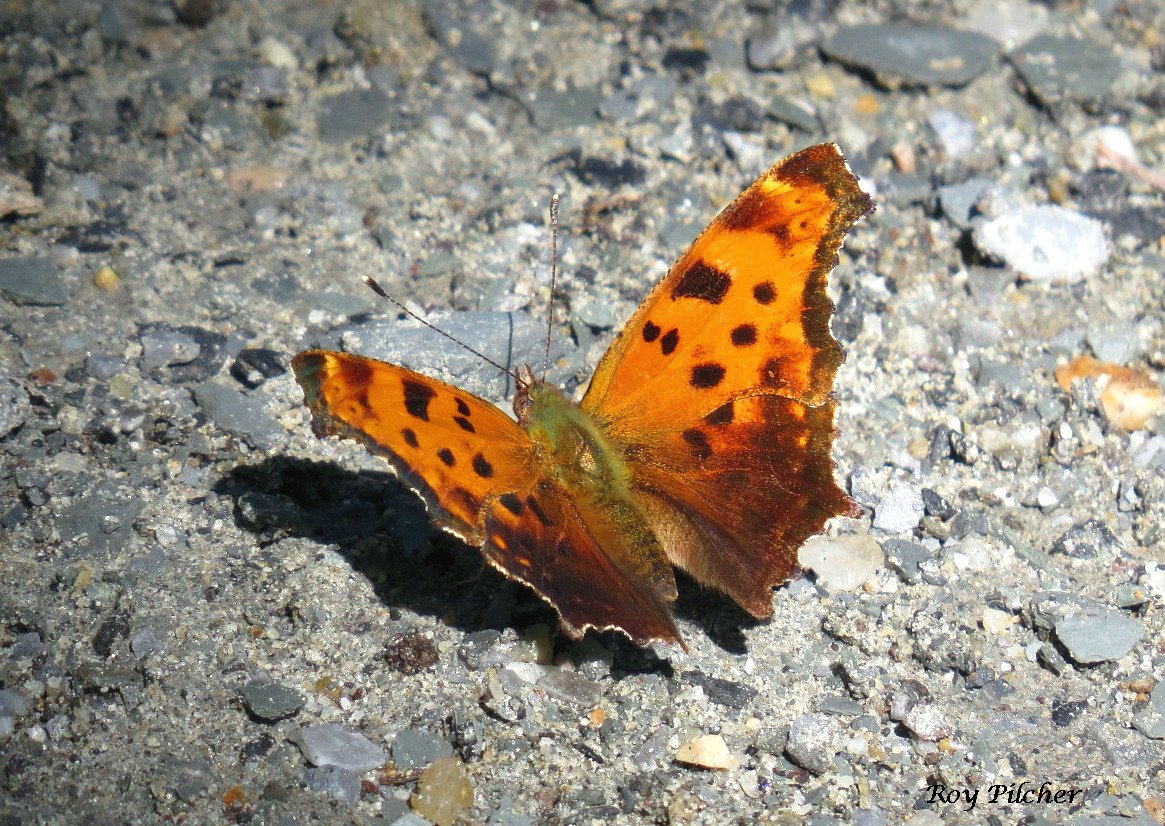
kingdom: Animalia
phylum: Arthropoda
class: Insecta
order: Lepidoptera
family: Nymphalidae
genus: Polygonia
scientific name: Polygonia comma
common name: Eastern Comma
